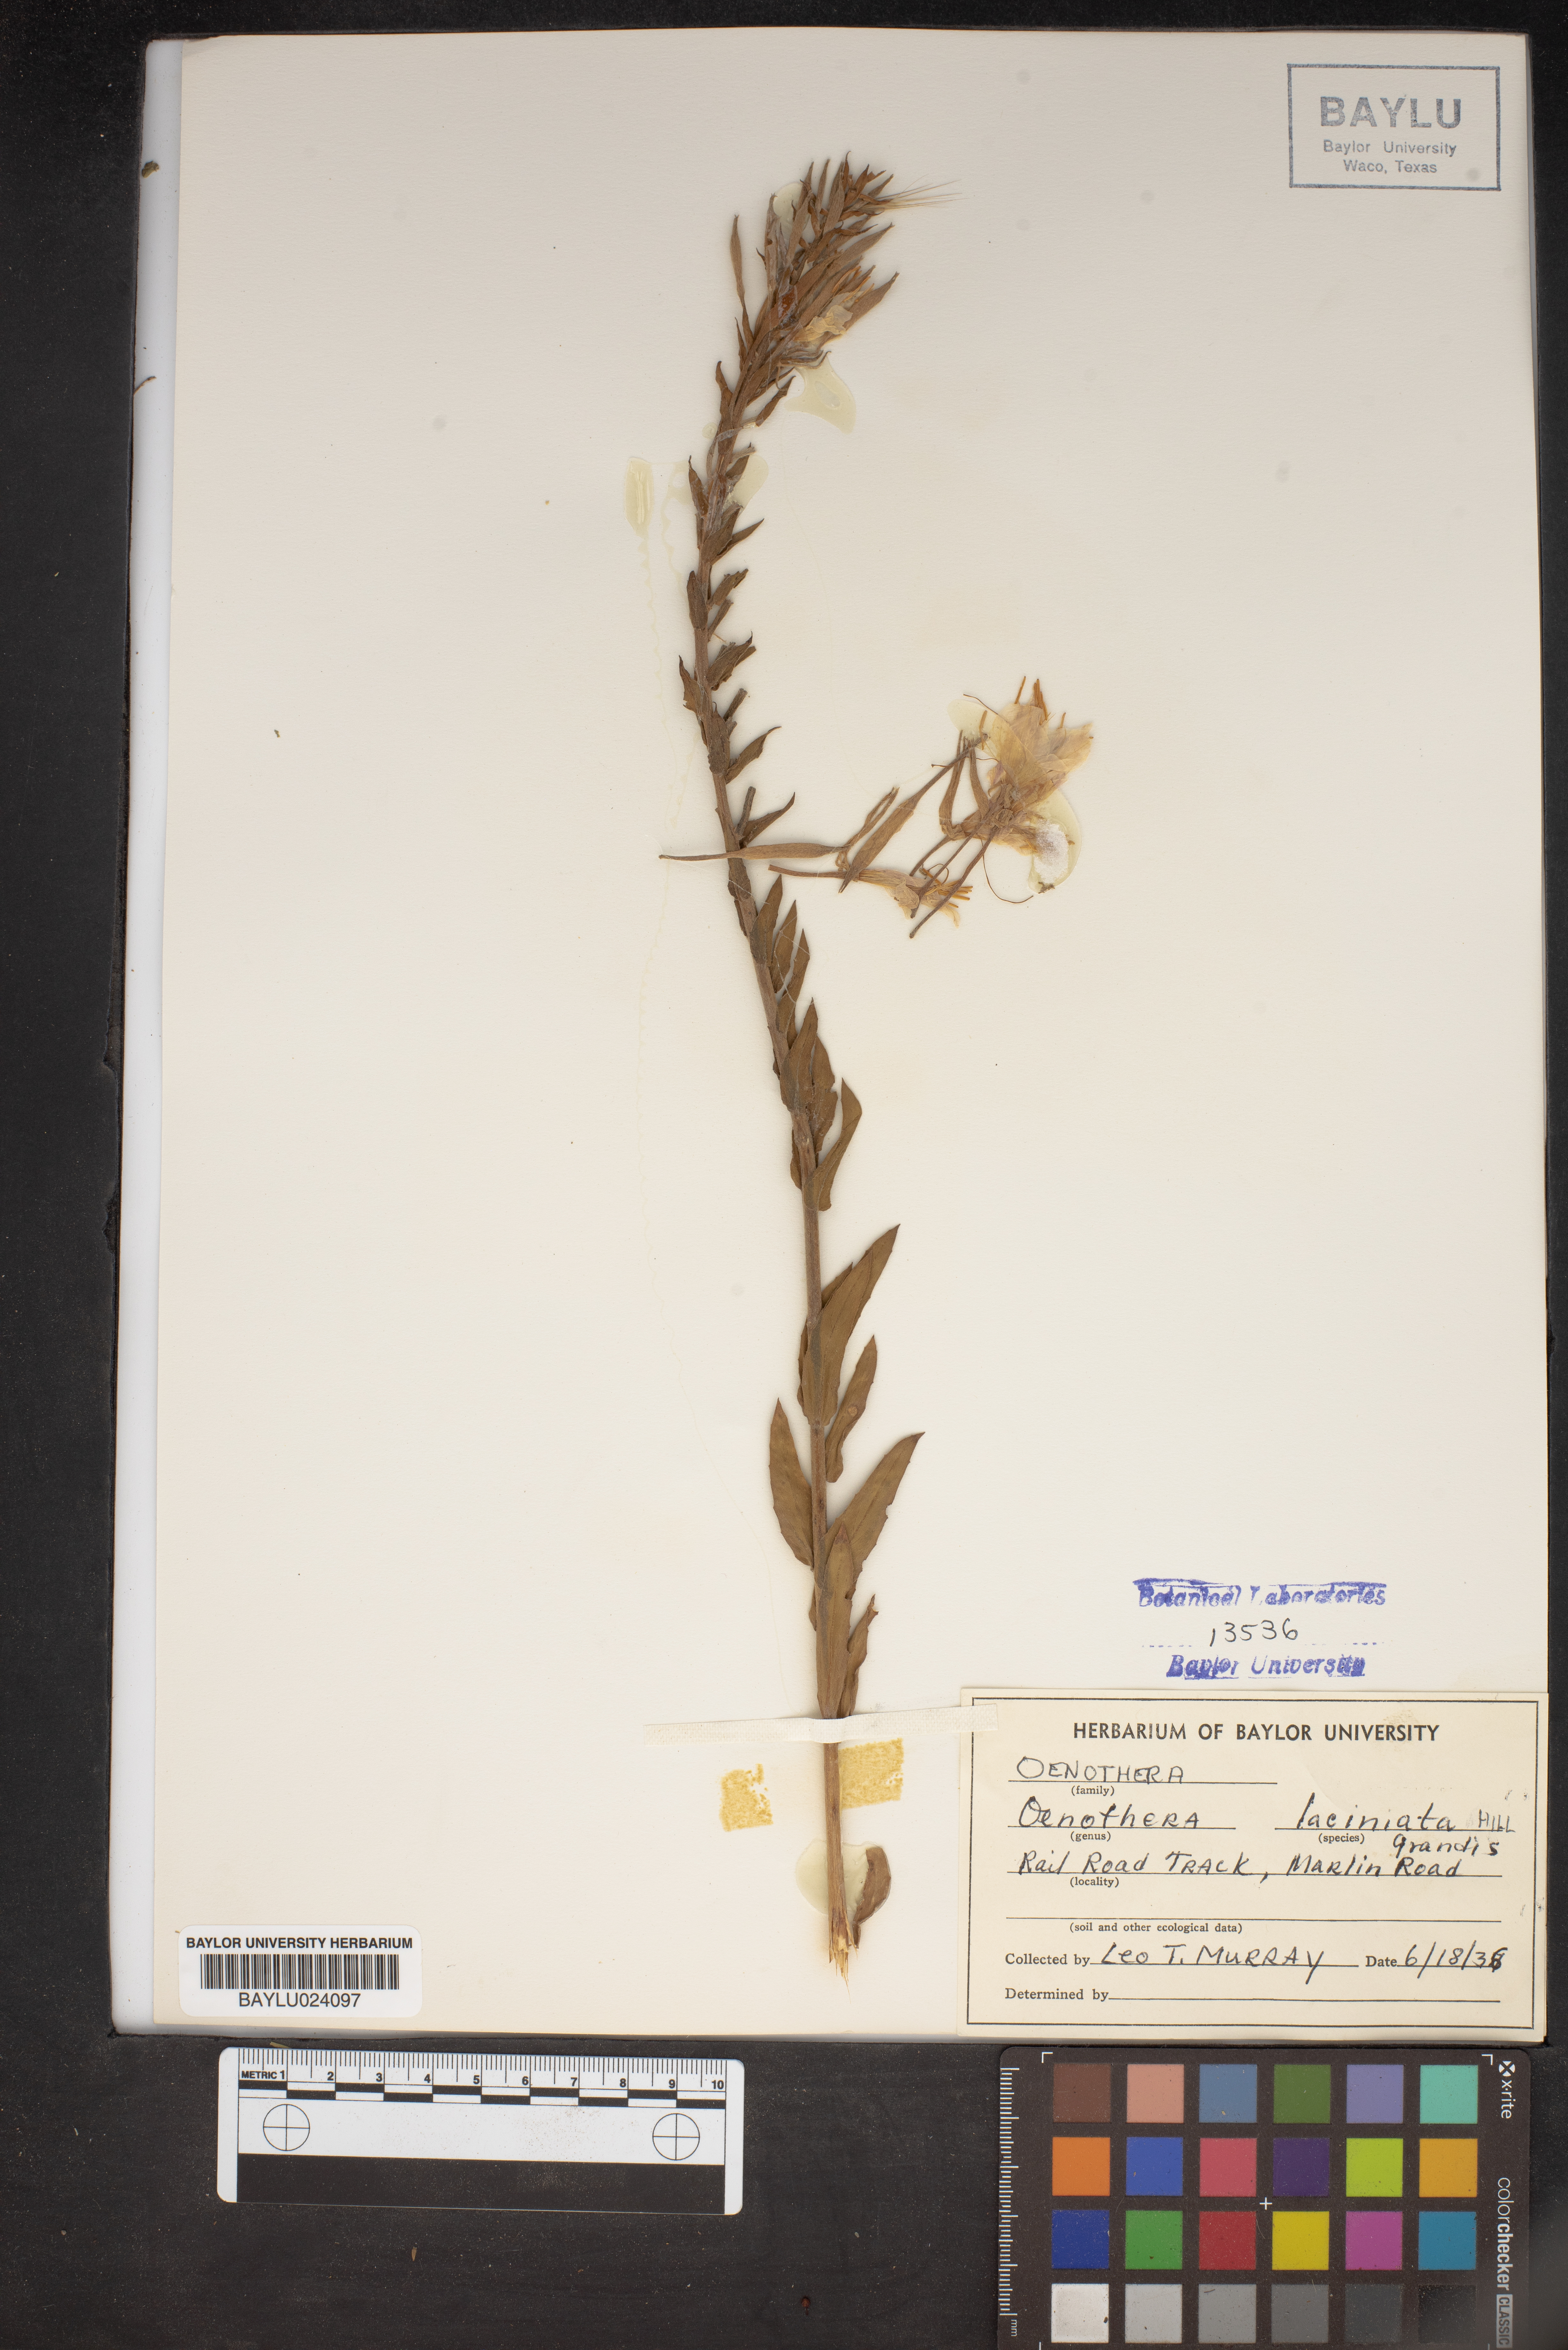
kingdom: Plantae
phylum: Tracheophyta
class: Magnoliopsida
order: Myrtales
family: Onagraceae
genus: Oenothera
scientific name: Oenothera grandis
